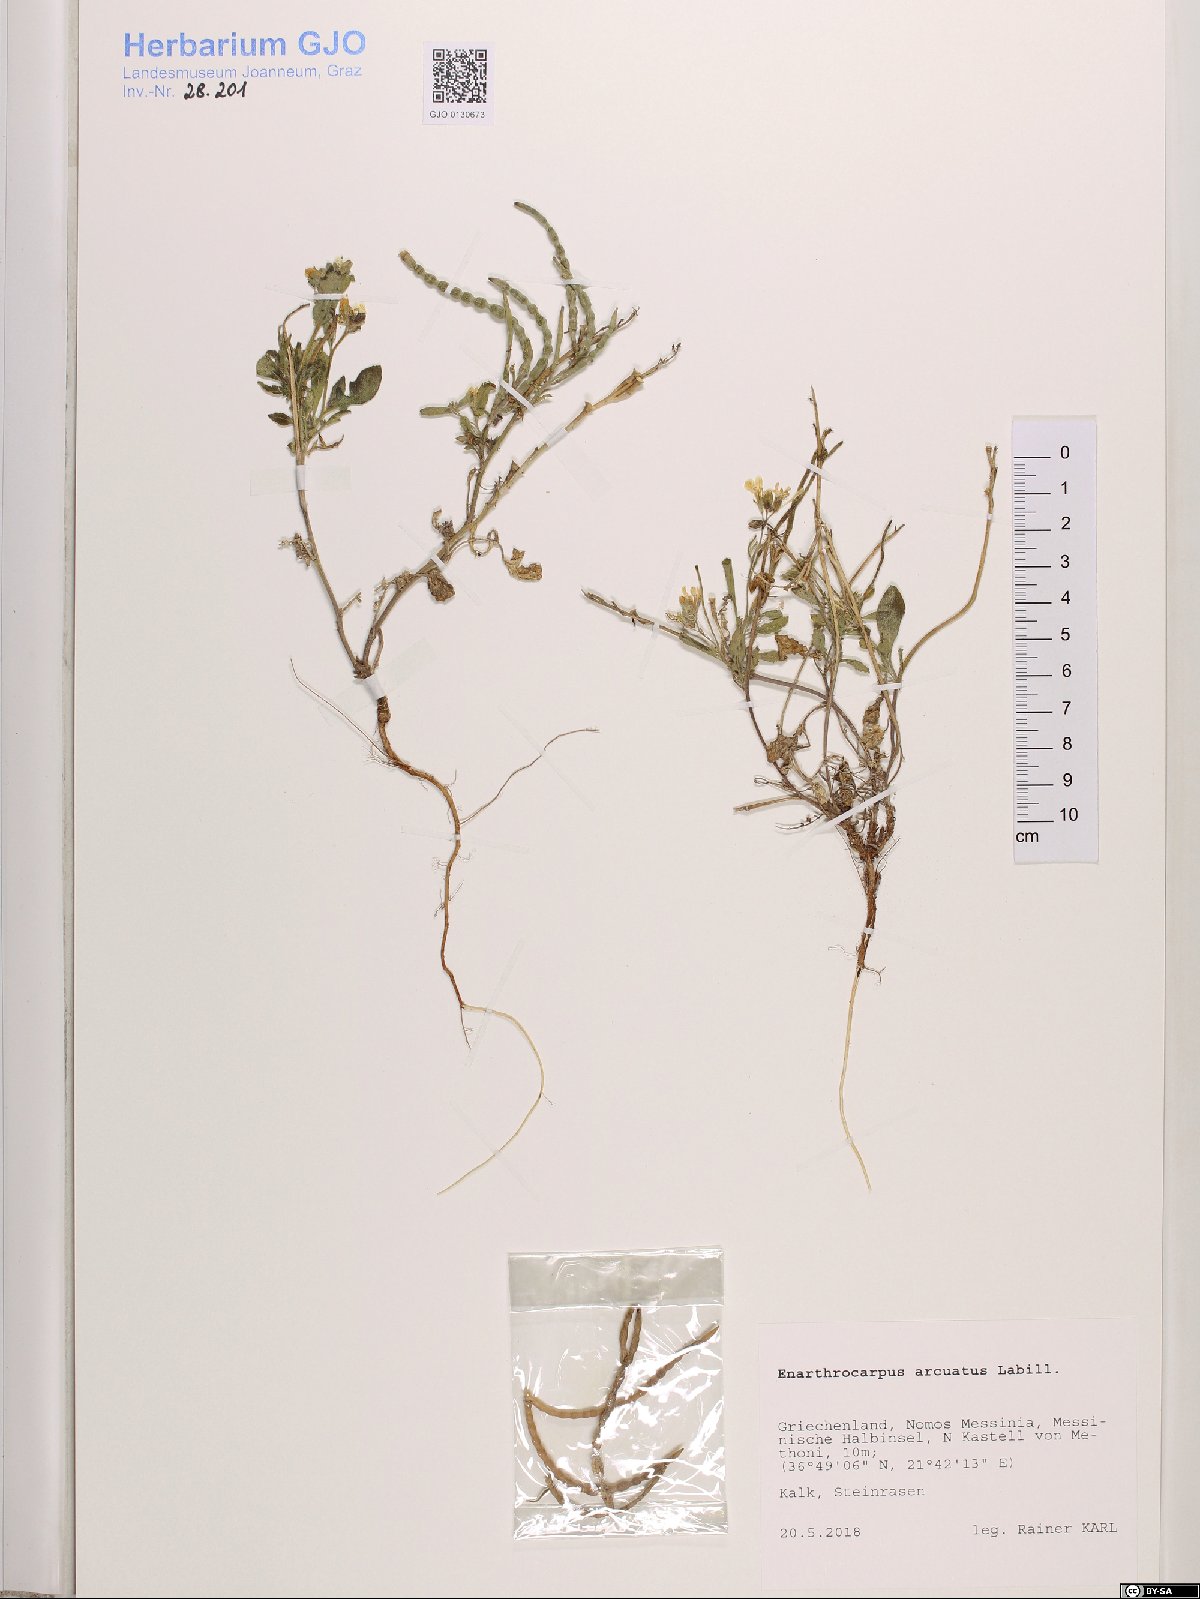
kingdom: Plantae
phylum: Tracheophyta
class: Magnoliopsida
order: Brassicales
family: Brassicaceae
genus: Enarthrocarpus
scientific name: Enarthrocarpus arcuatus
